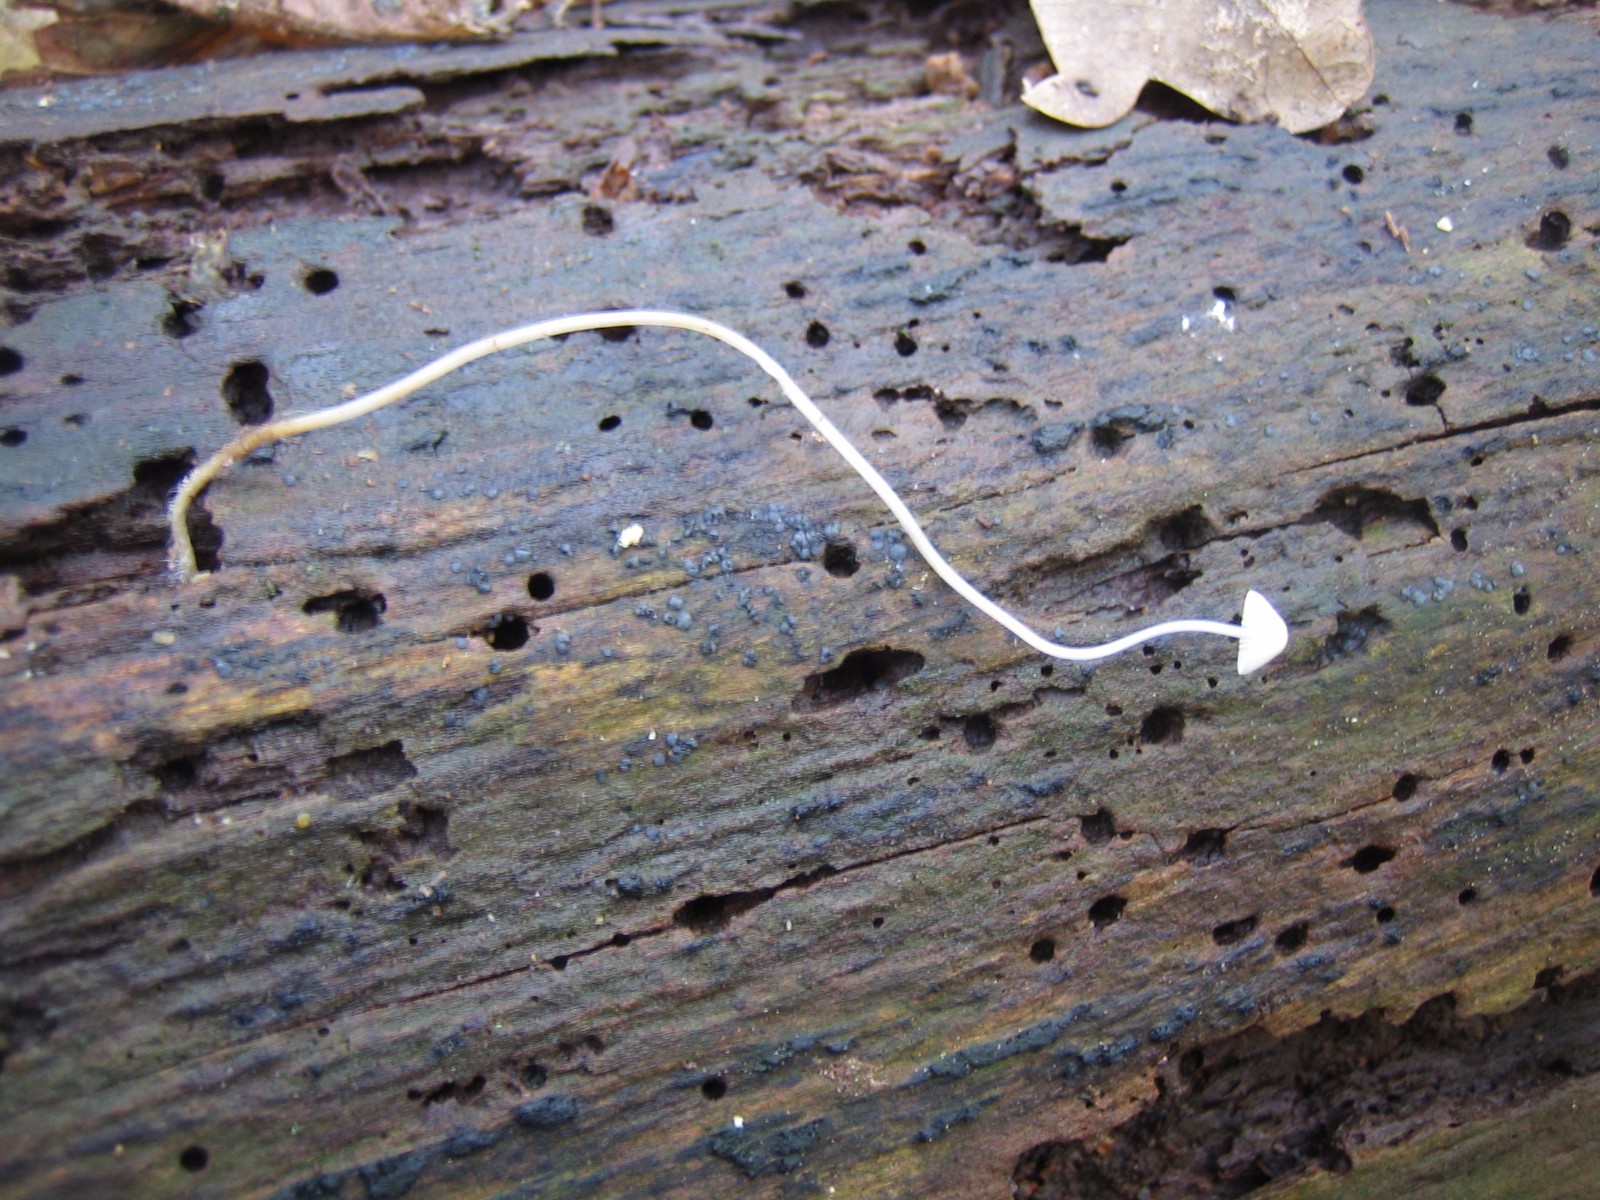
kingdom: Fungi
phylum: Basidiomycota
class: Agaricomycetes
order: Agaricales
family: Mycenaceae
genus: Mycena
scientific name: Mycena
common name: huesvamp
